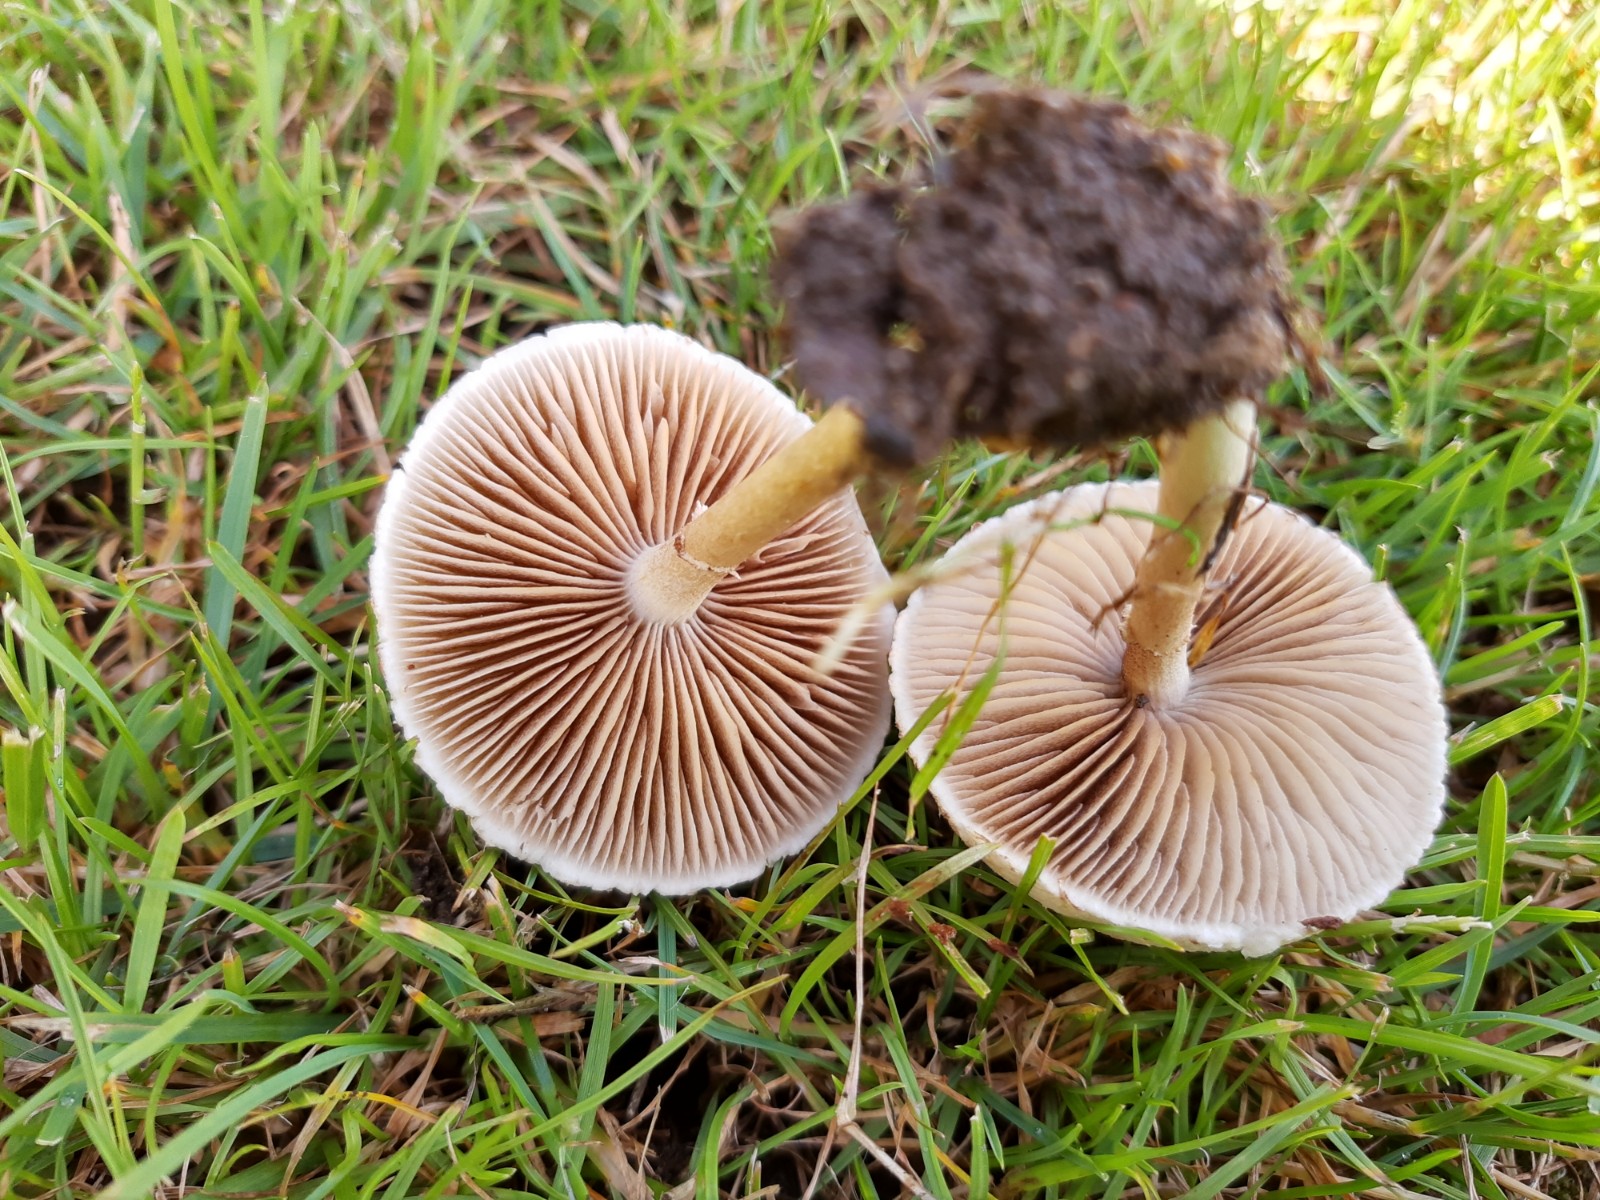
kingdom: Fungi
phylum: Basidiomycota
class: Agaricomycetes
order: Agaricales
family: Strophariaceae
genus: Agrocybe
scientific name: Agrocybe dura
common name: fastkødet agerhat
